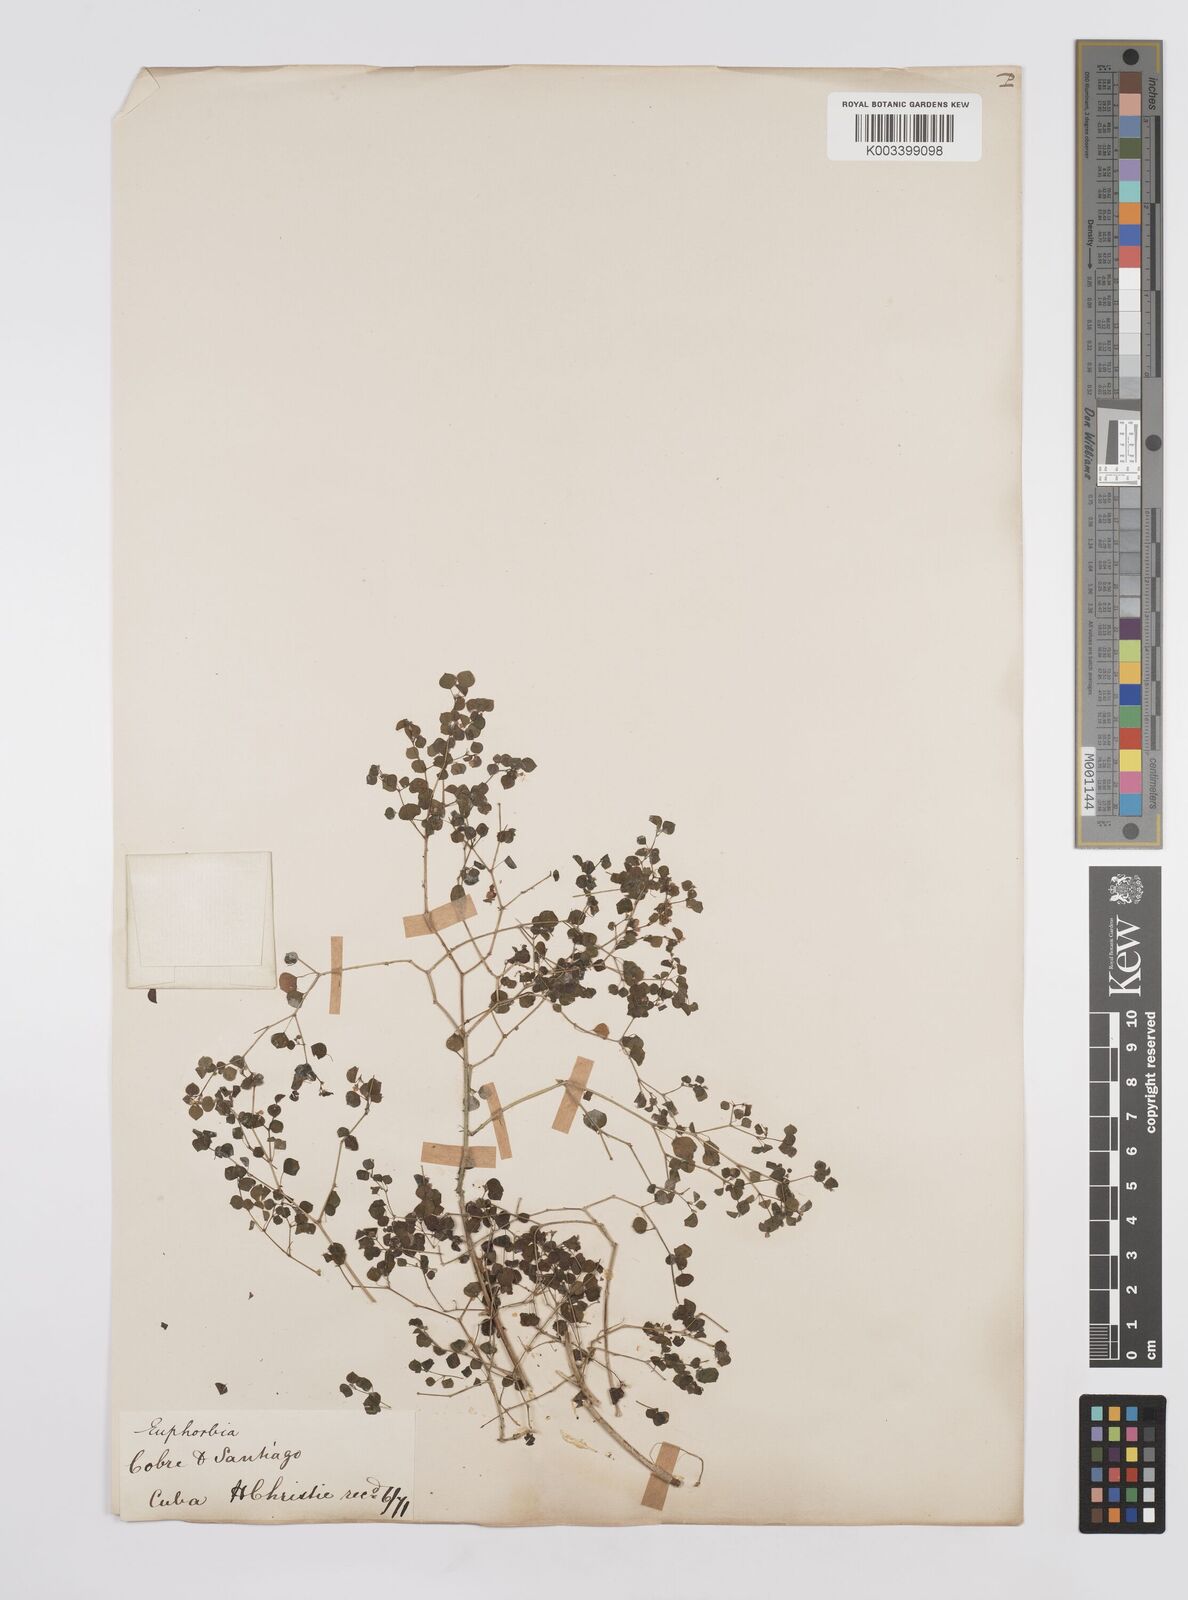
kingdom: Plantae
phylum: Tracheophyta
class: Magnoliopsida
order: Malpighiales
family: Euphorbiaceae
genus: Euphorbia
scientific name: Euphorbia
